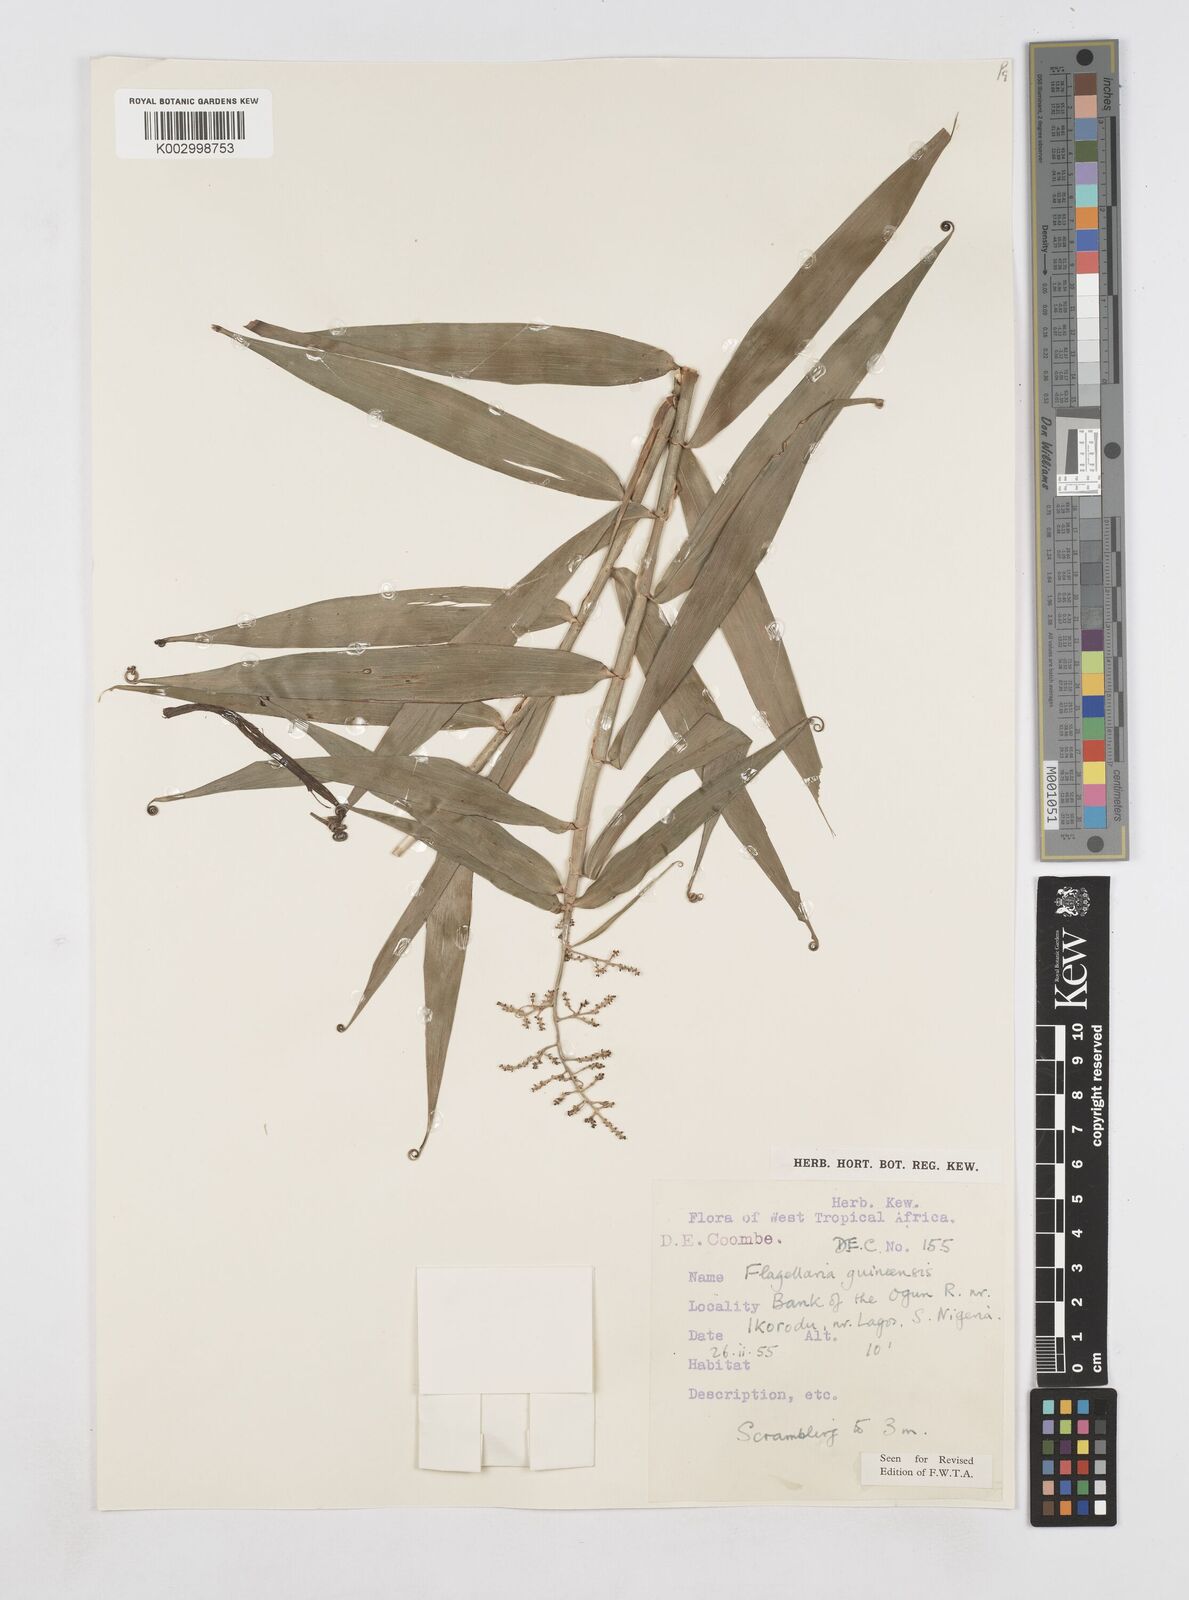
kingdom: Plantae
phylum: Tracheophyta
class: Liliopsida
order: Poales
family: Flagellariaceae
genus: Flagellaria
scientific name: Flagellaria guineensis
